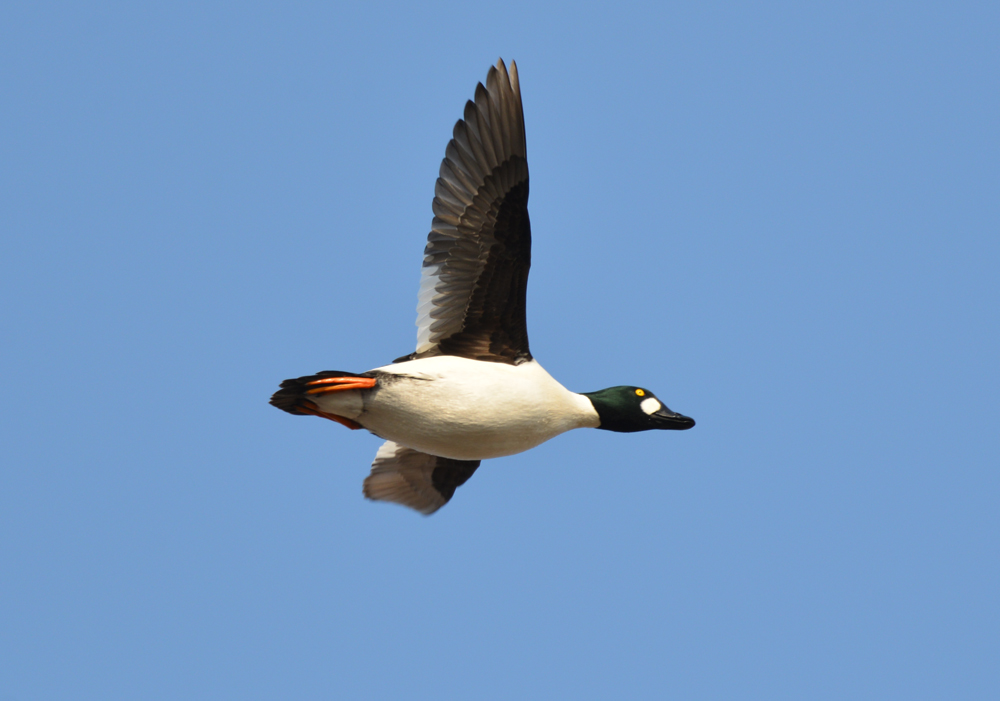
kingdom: Animalia
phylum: Chordata
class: Aves
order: Anseriformes
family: Anatidae
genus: Bucephala
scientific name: Bucephala clangula
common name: Common goldeneye
